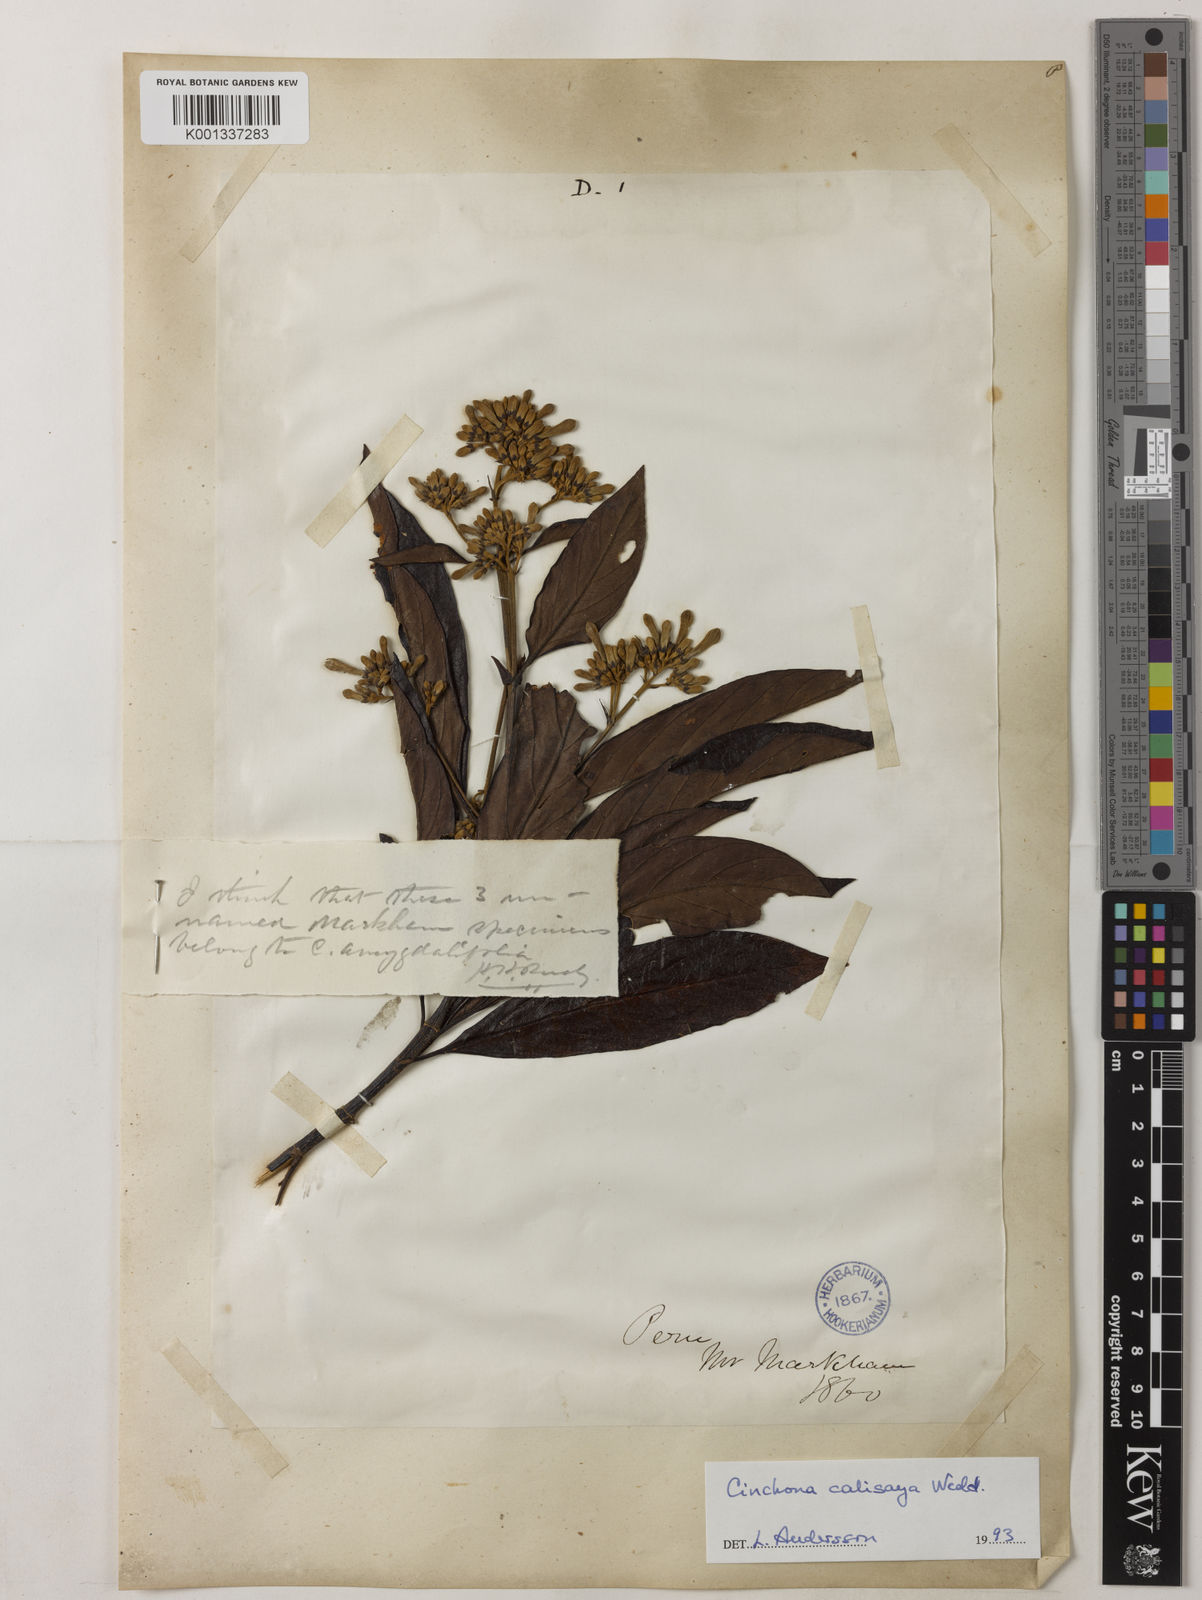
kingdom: Plantae
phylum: Tracheophyta
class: Magnoliopsida
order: Gentianales
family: Rubiaceae
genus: Cinchona
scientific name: Cinchona calisaya
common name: Ledgerbark
